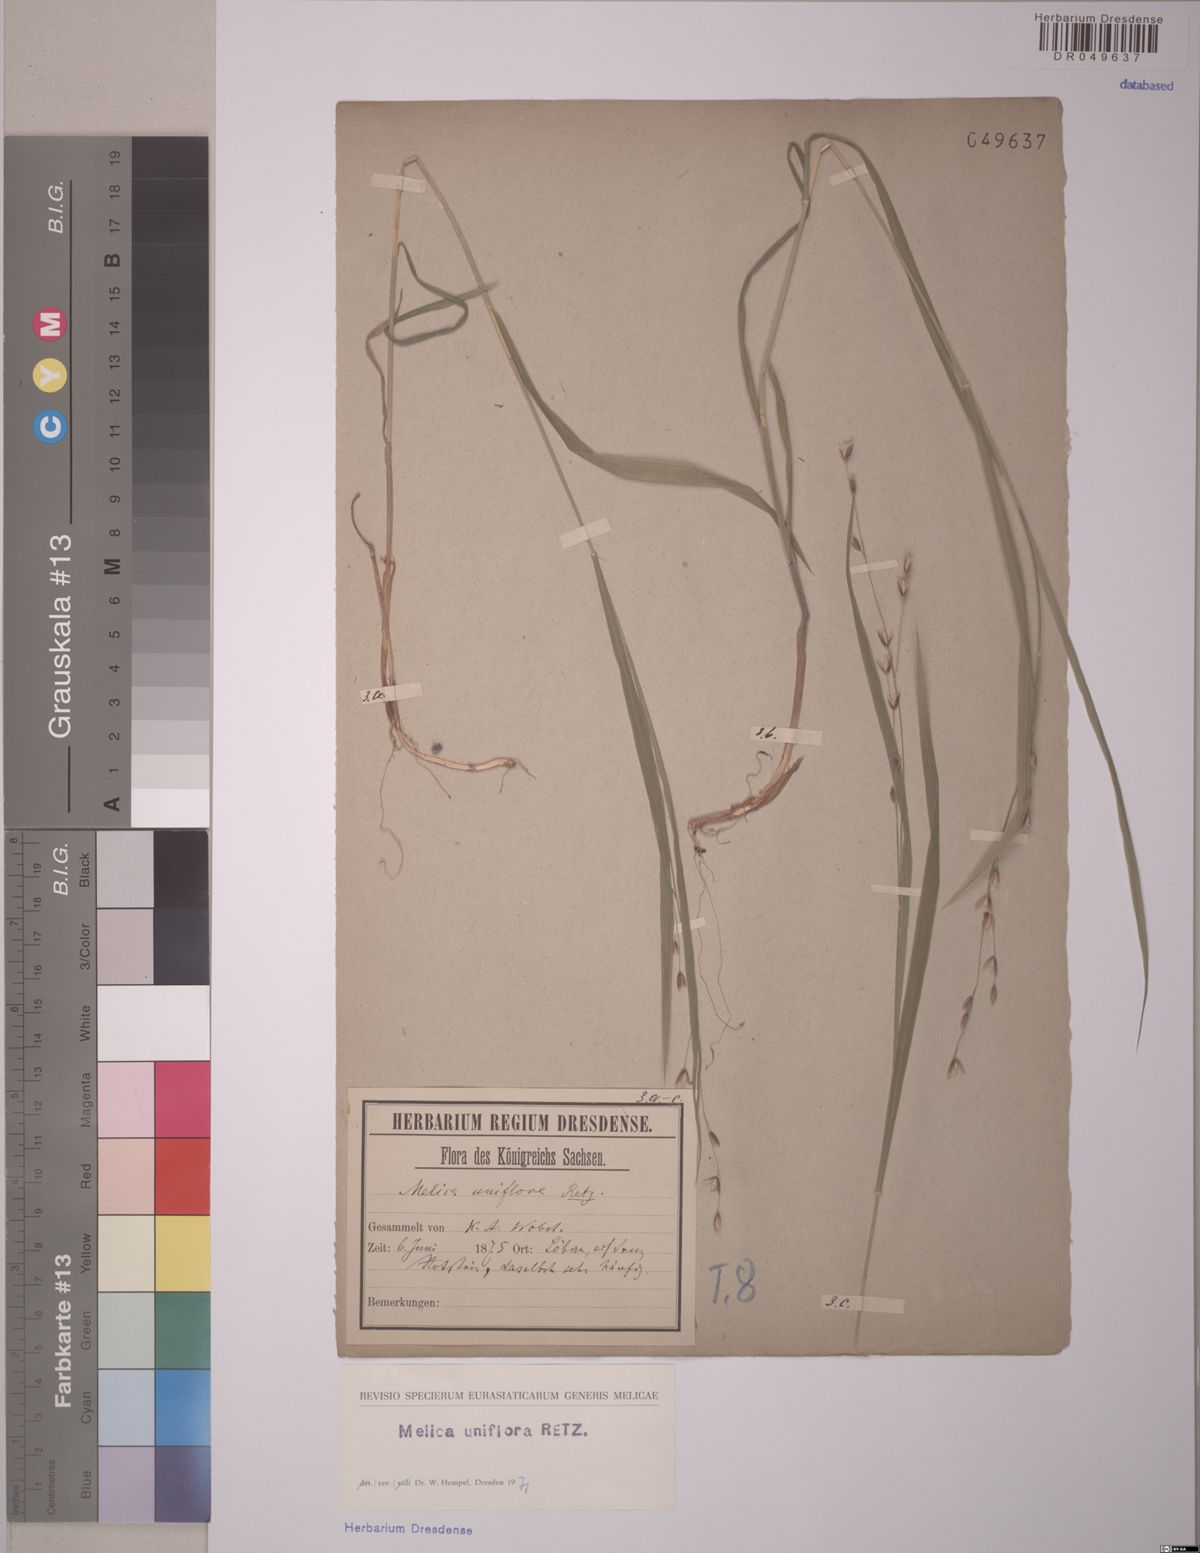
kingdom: Plantae
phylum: Tracheophyta
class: Liliopsida
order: Poales
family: Poaceae
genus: Melica
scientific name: Melica uniflora
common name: Wood melick
